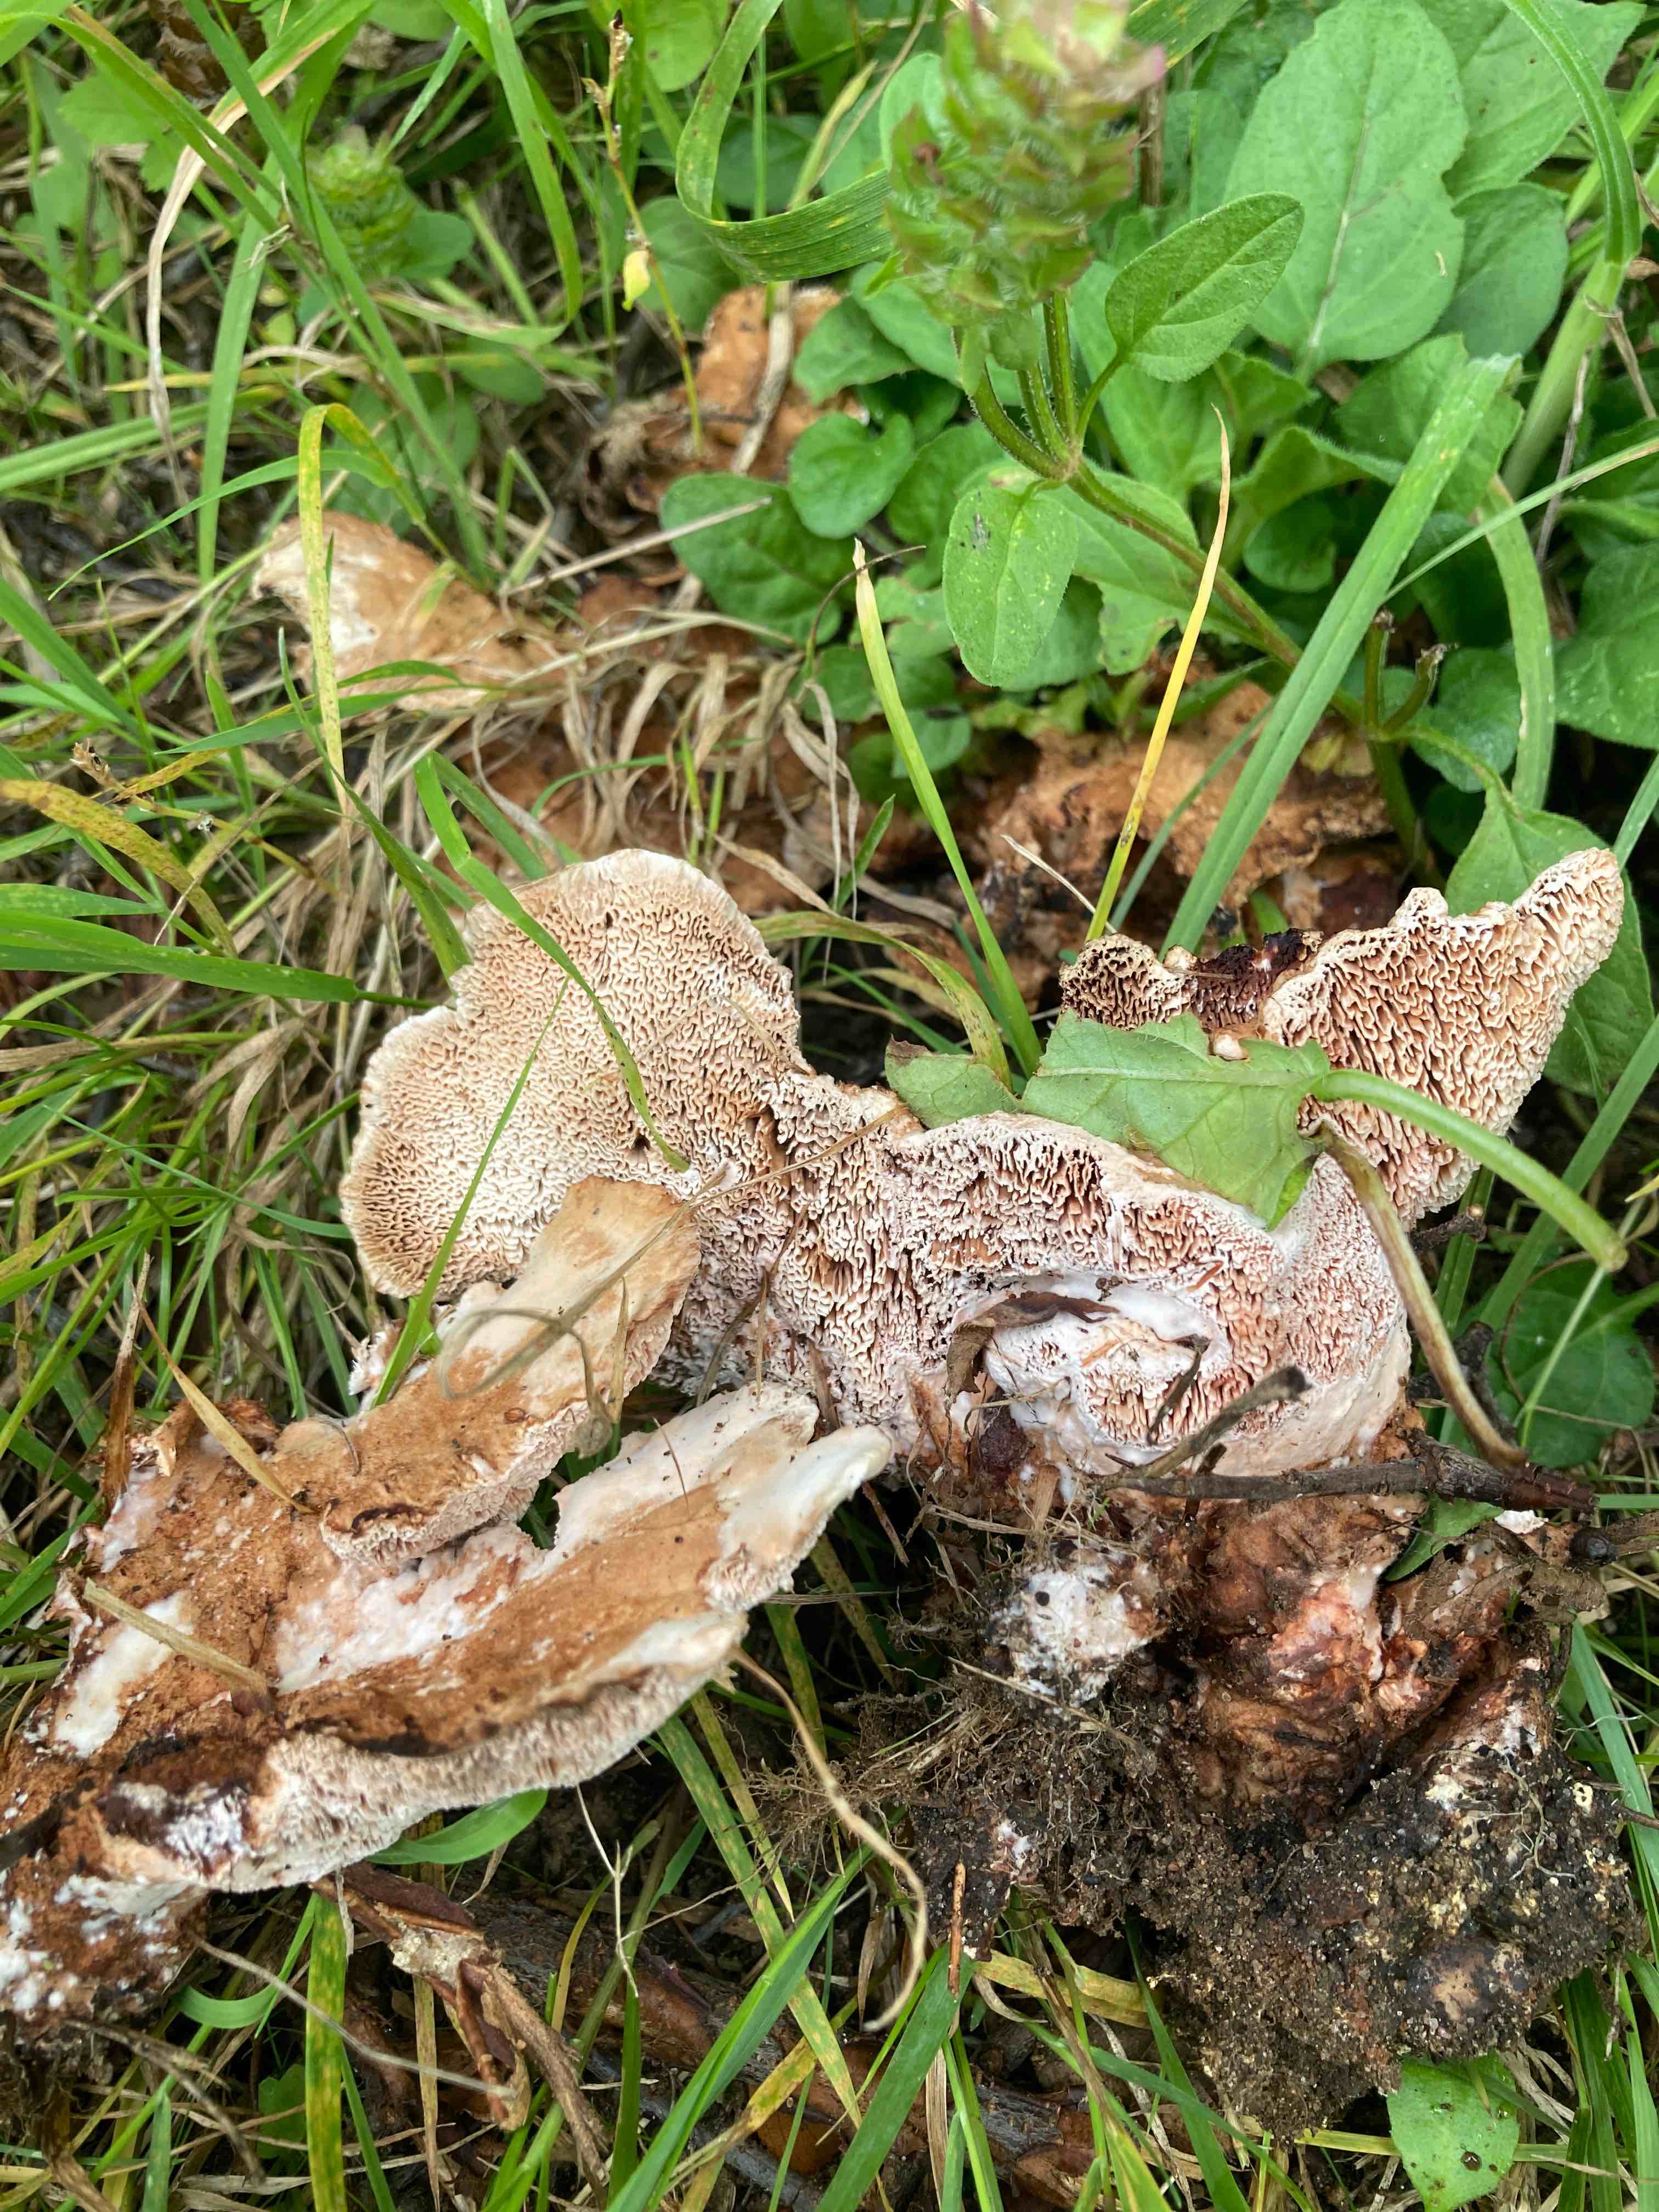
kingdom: Fungi
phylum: Basidiomycota
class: Agaricomycetes
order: Polyporales
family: Podoscyphaceae
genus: Abortiporus
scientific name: Abortiporus biennis
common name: rødmende pjalteporesvamp
